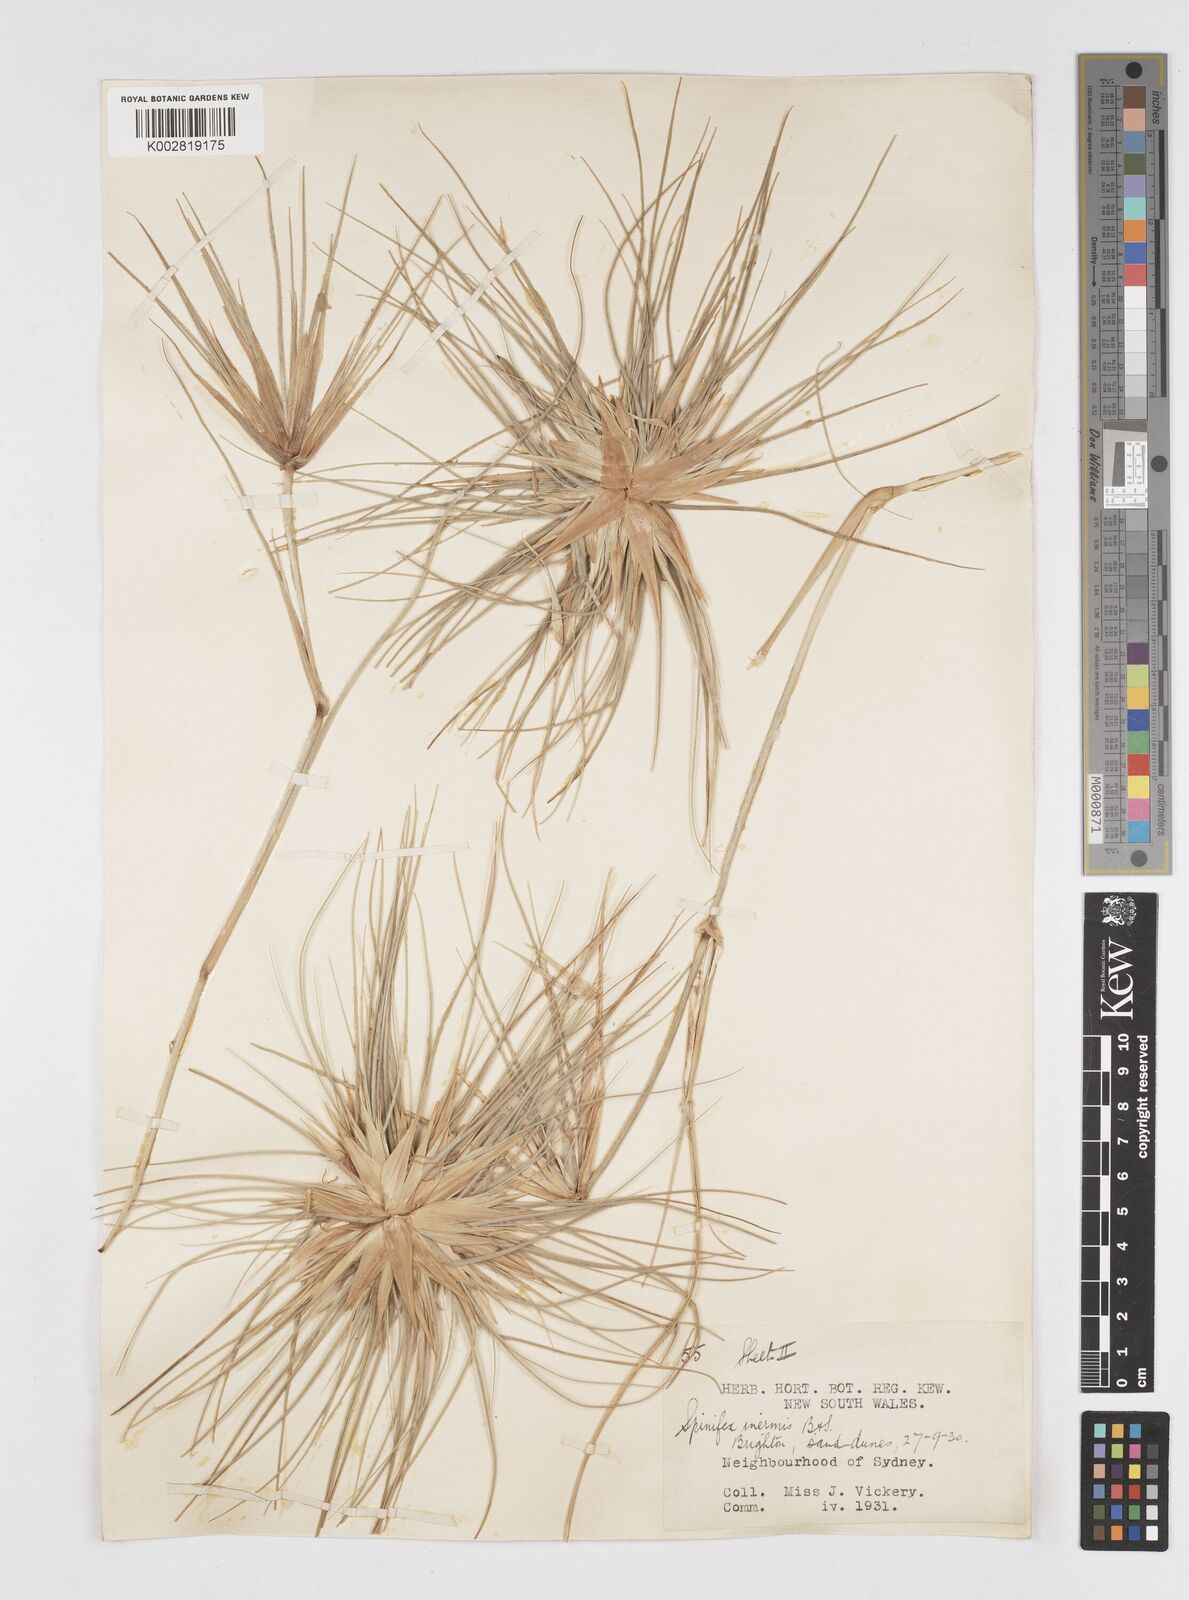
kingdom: Plantae
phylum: Tracheophyta
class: Liliopsida
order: Poales
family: Poaceae
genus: Spinifex
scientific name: Spinifex hirsutus
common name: Hairy spinifex
